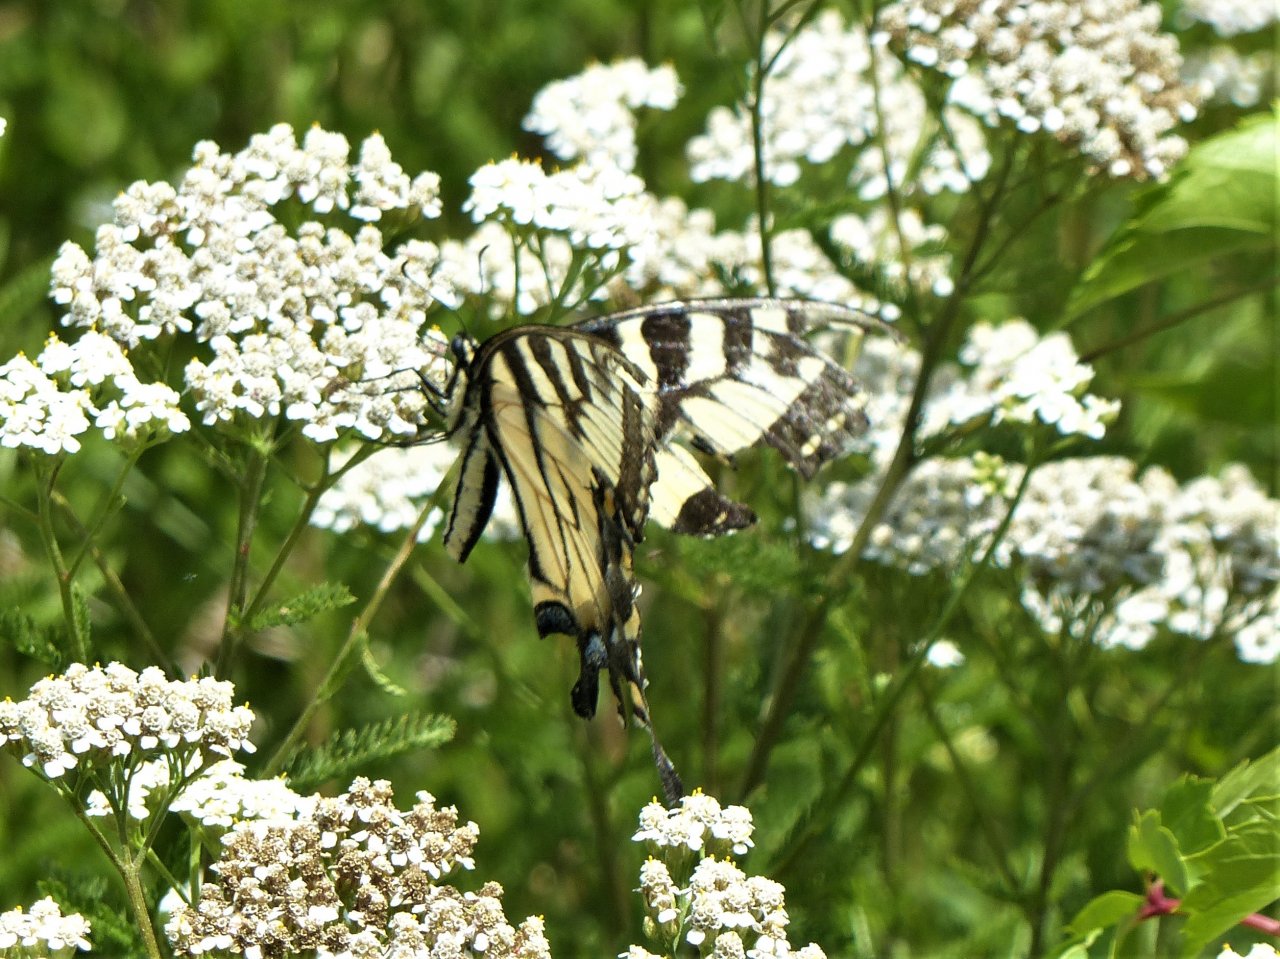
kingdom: Animalia
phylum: Arthropoda
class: Insecta
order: Lepidoptera
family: Papilionidae
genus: Pterourus
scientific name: Pterourus glaucus
